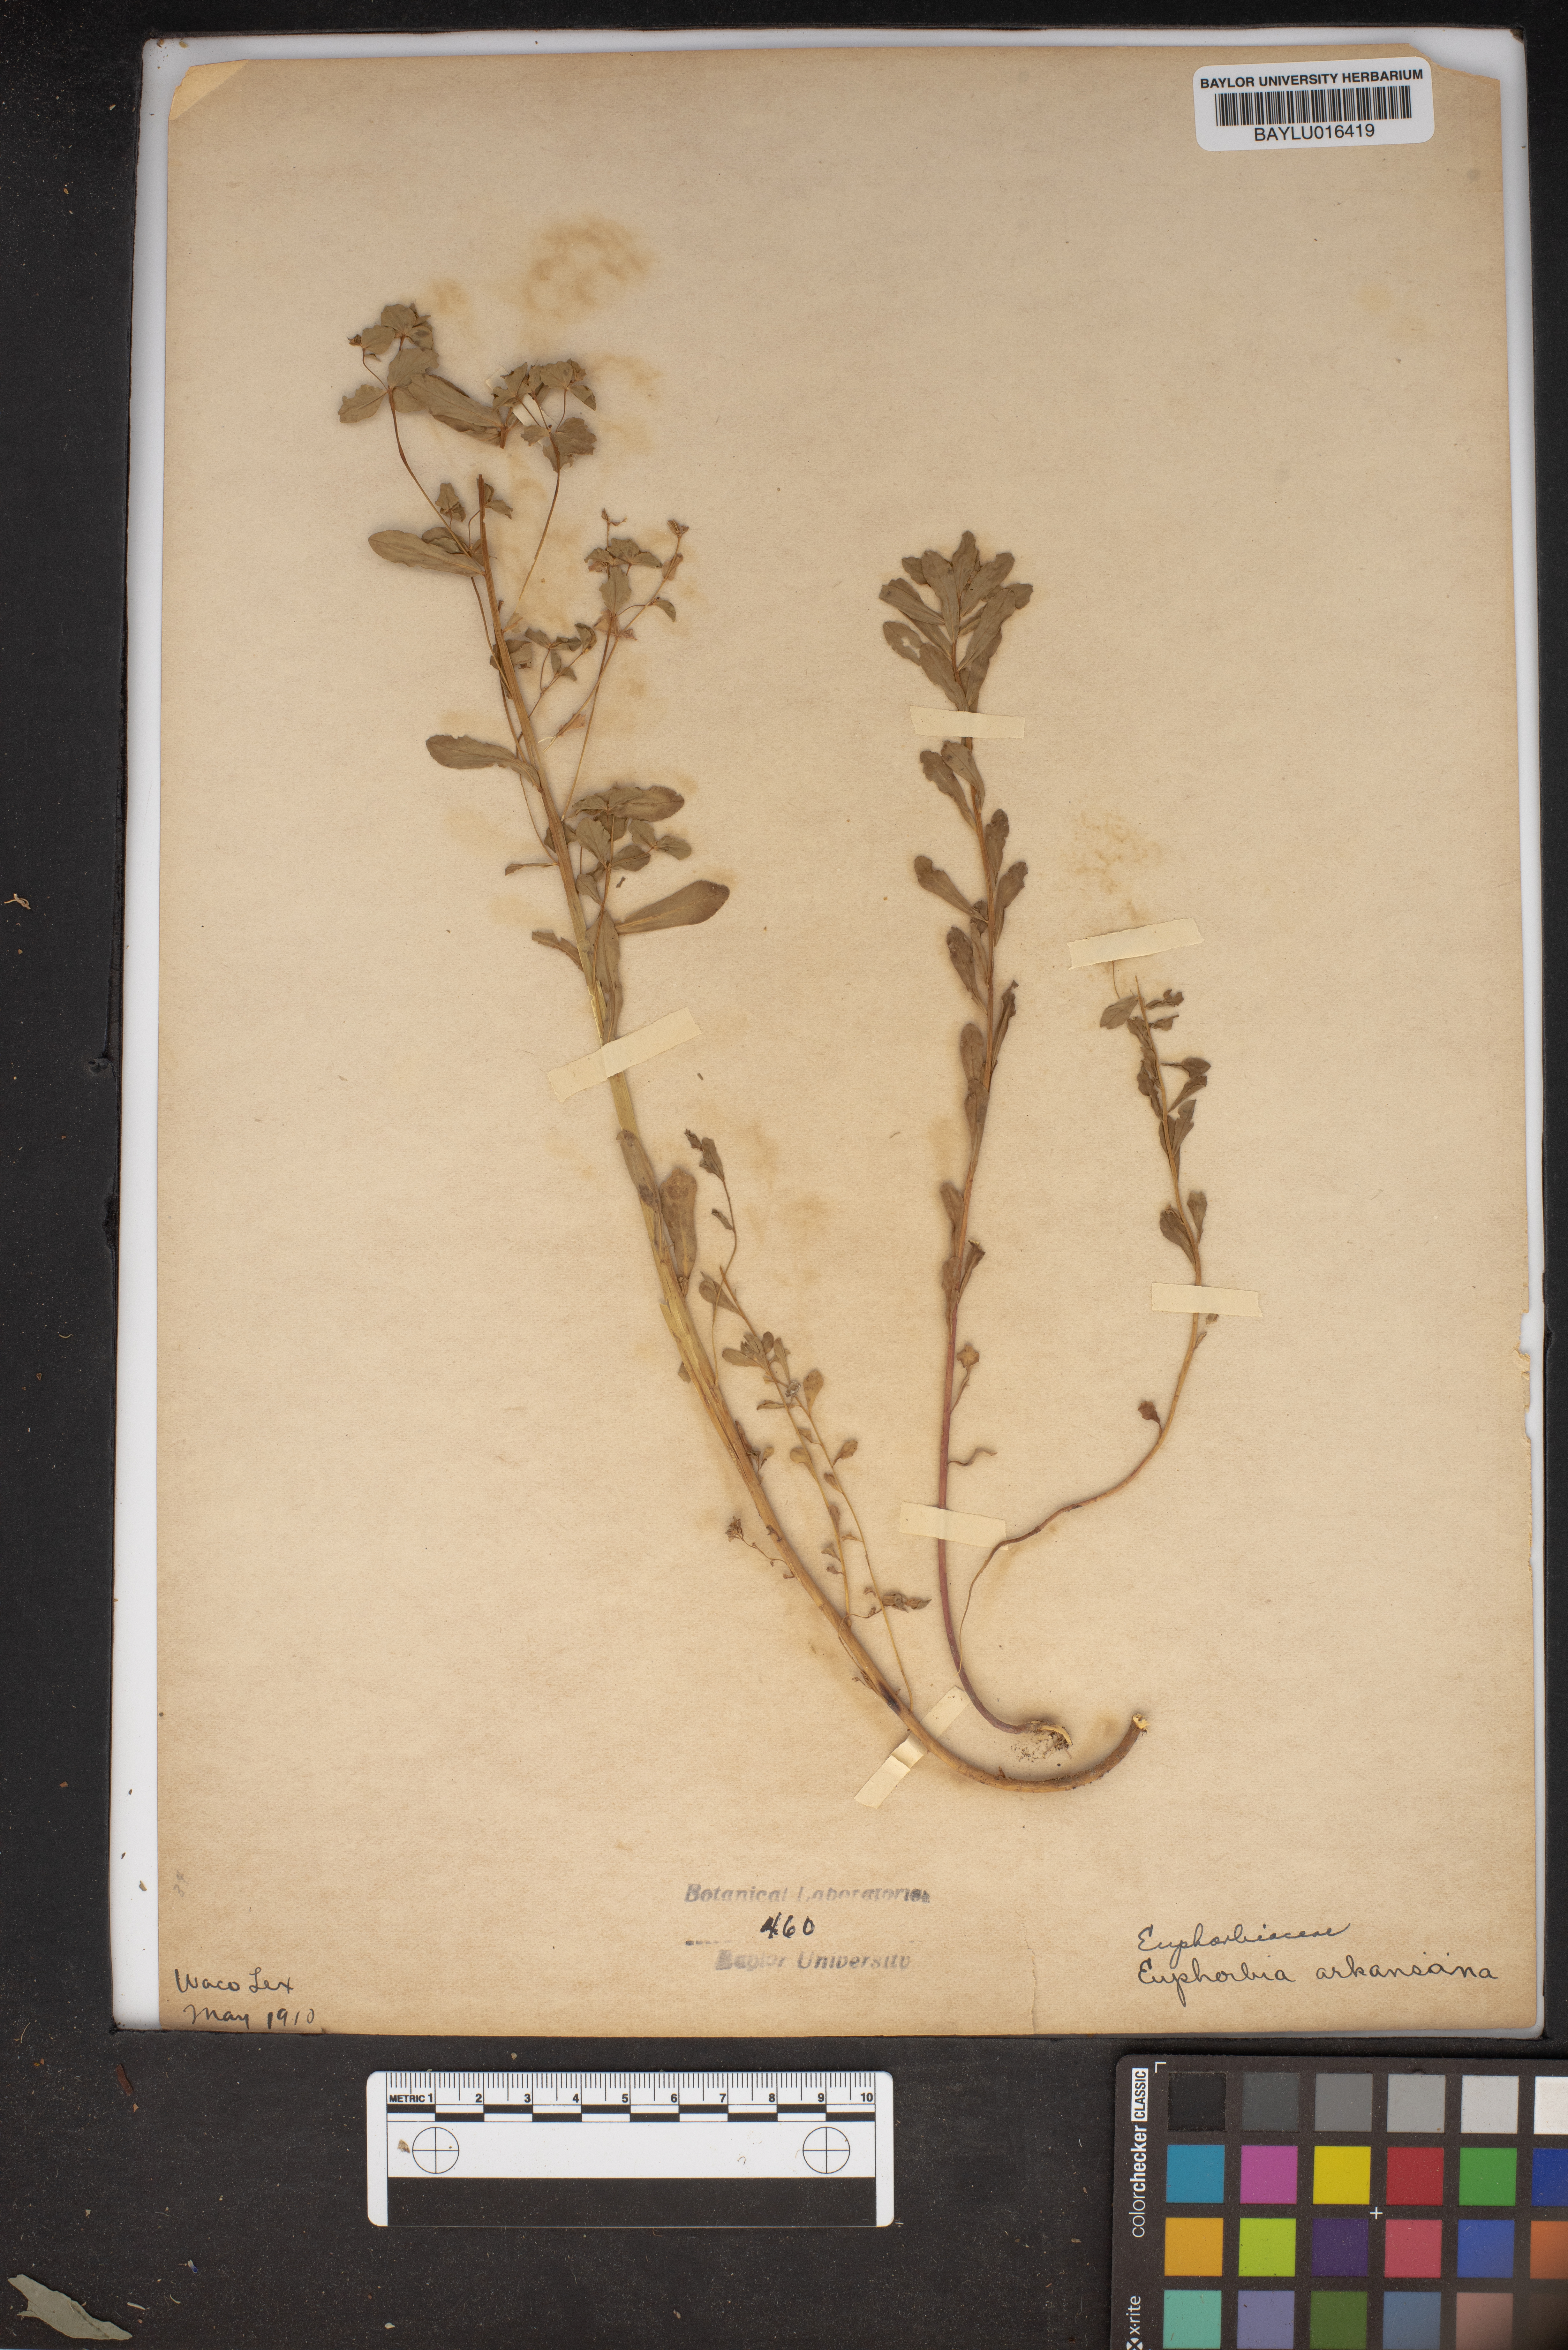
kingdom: Plantae
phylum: Tracheophyta
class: Magnoliopsida
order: Malpighiales
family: Euphorbiaceae
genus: Euphorbia
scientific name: Euphorbia spathulata
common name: Blunt spurge
